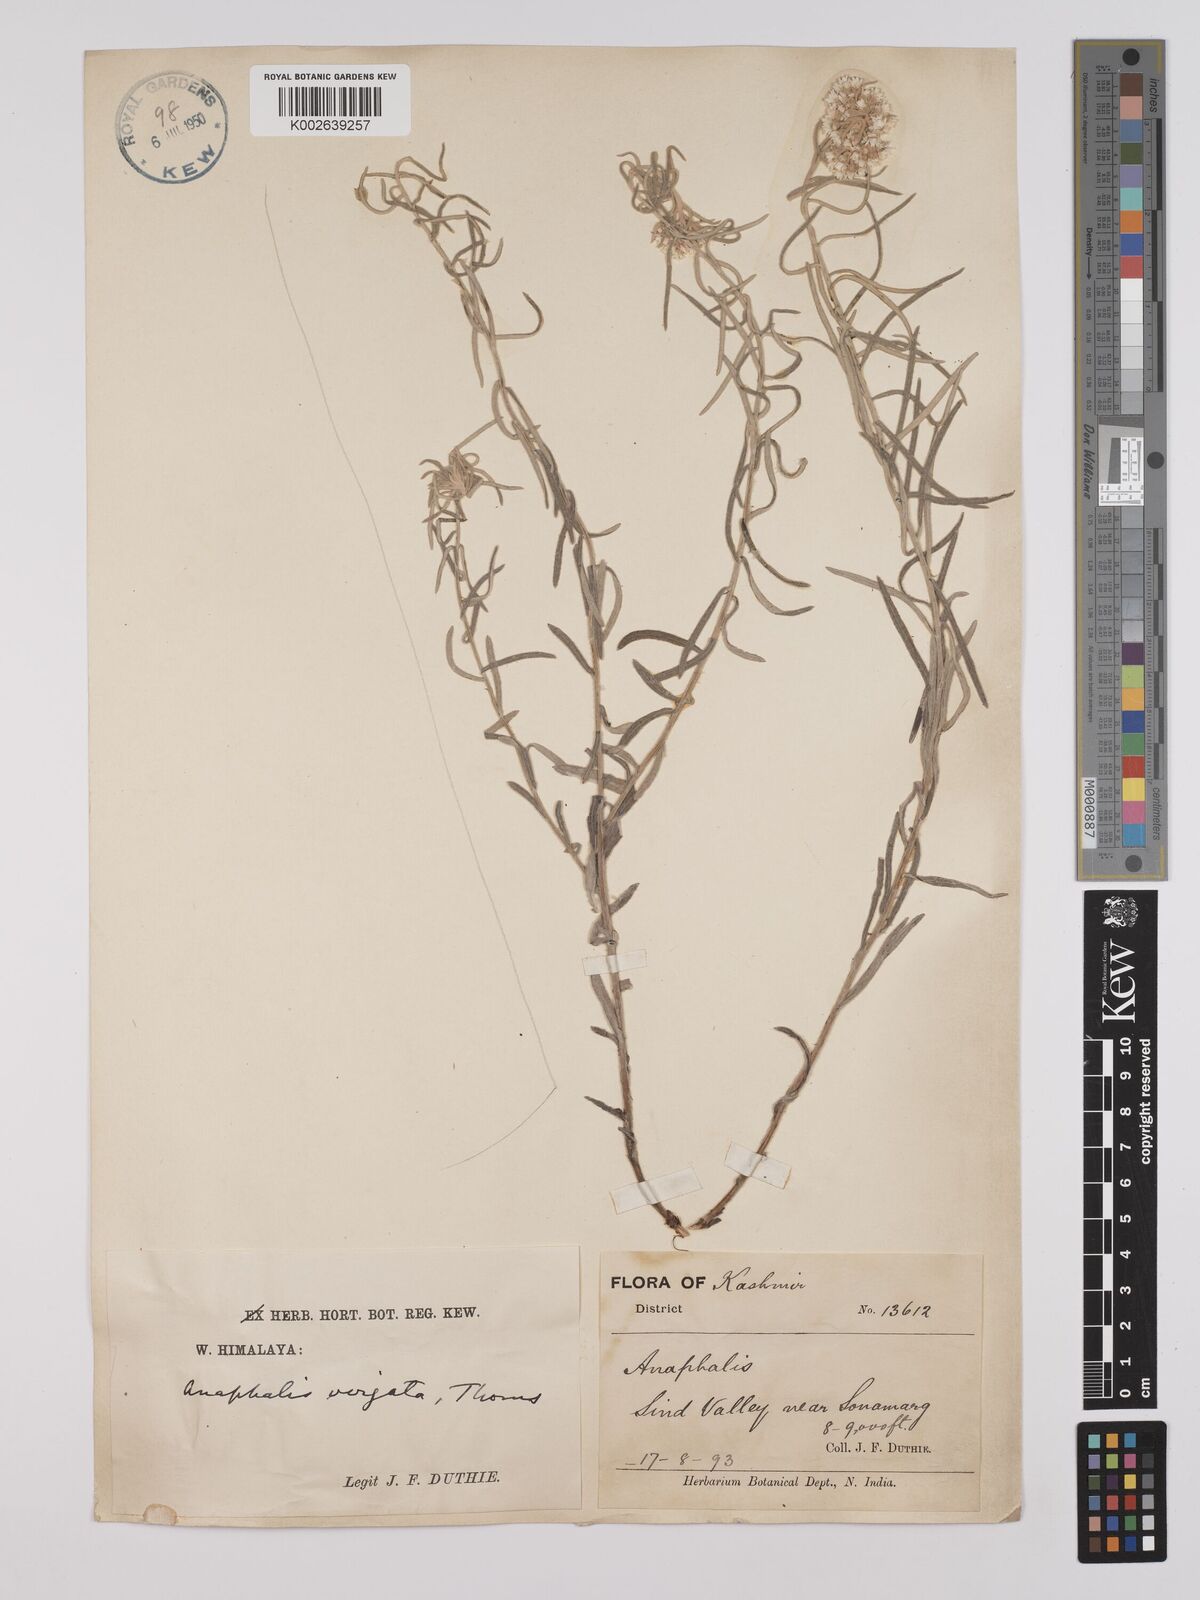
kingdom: Plantae
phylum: Tracheophyta
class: Magnoliopsida
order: Asterales
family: Asteraceae
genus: Anaphalis
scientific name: Anaphalis virgata
